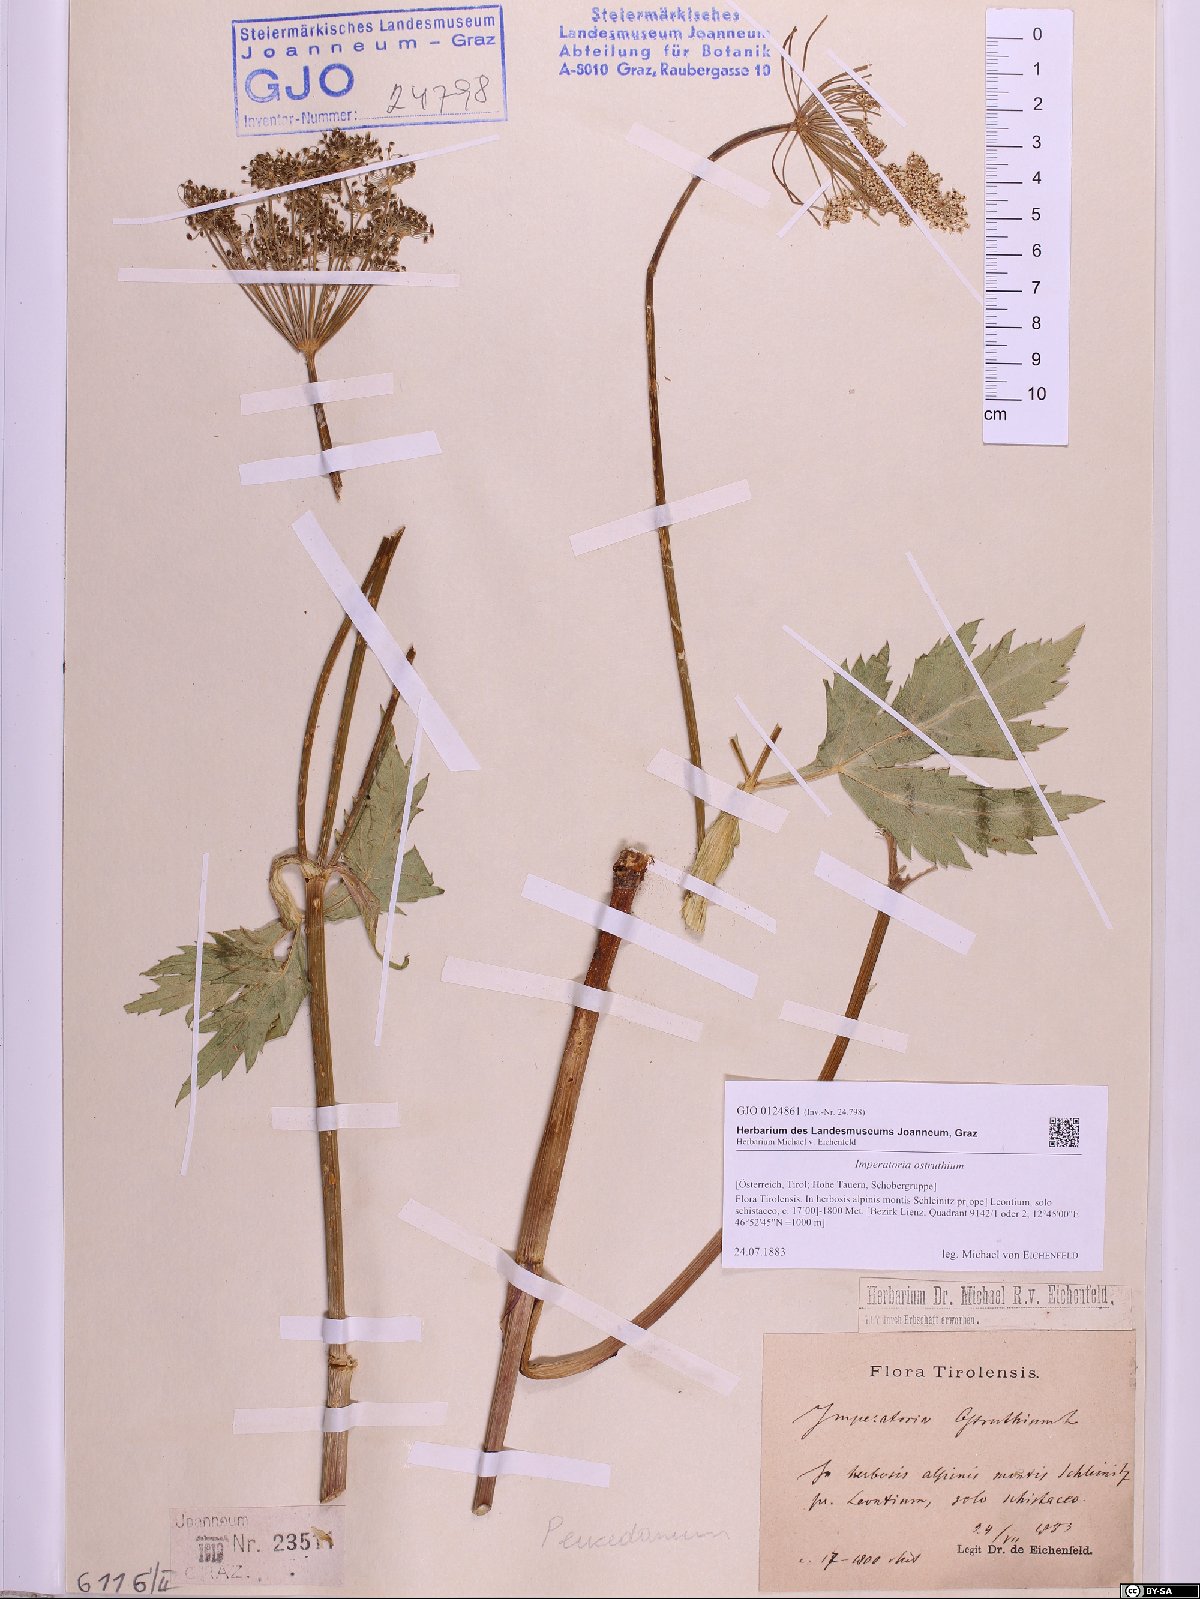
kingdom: Plantae
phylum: Tracheophyta
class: Magnoliopsida
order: Apiales
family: Apiaceae
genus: Imperatoria
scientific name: Imperatoria ostruthium
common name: Masterwort
